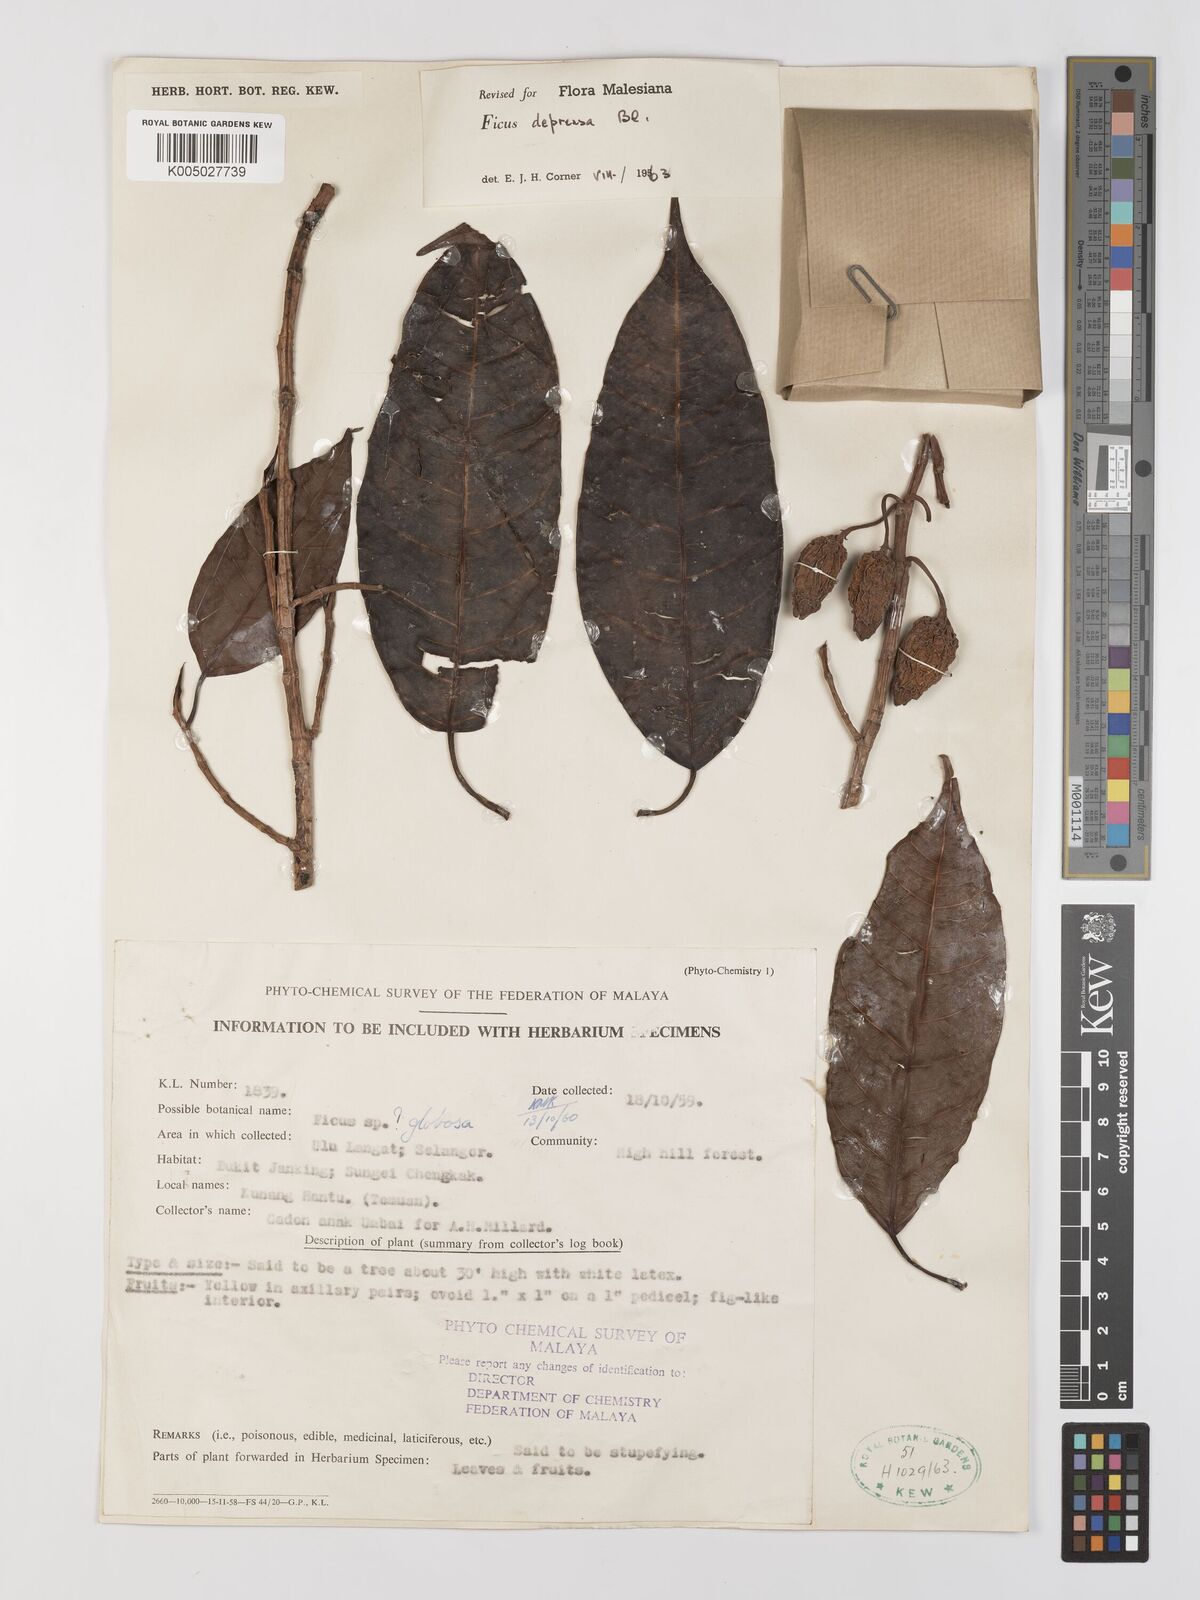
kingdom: Plantae
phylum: Tracheophyta
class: Magnoliopsida
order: Rosales
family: Moraceae
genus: Ficus
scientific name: Ficus
